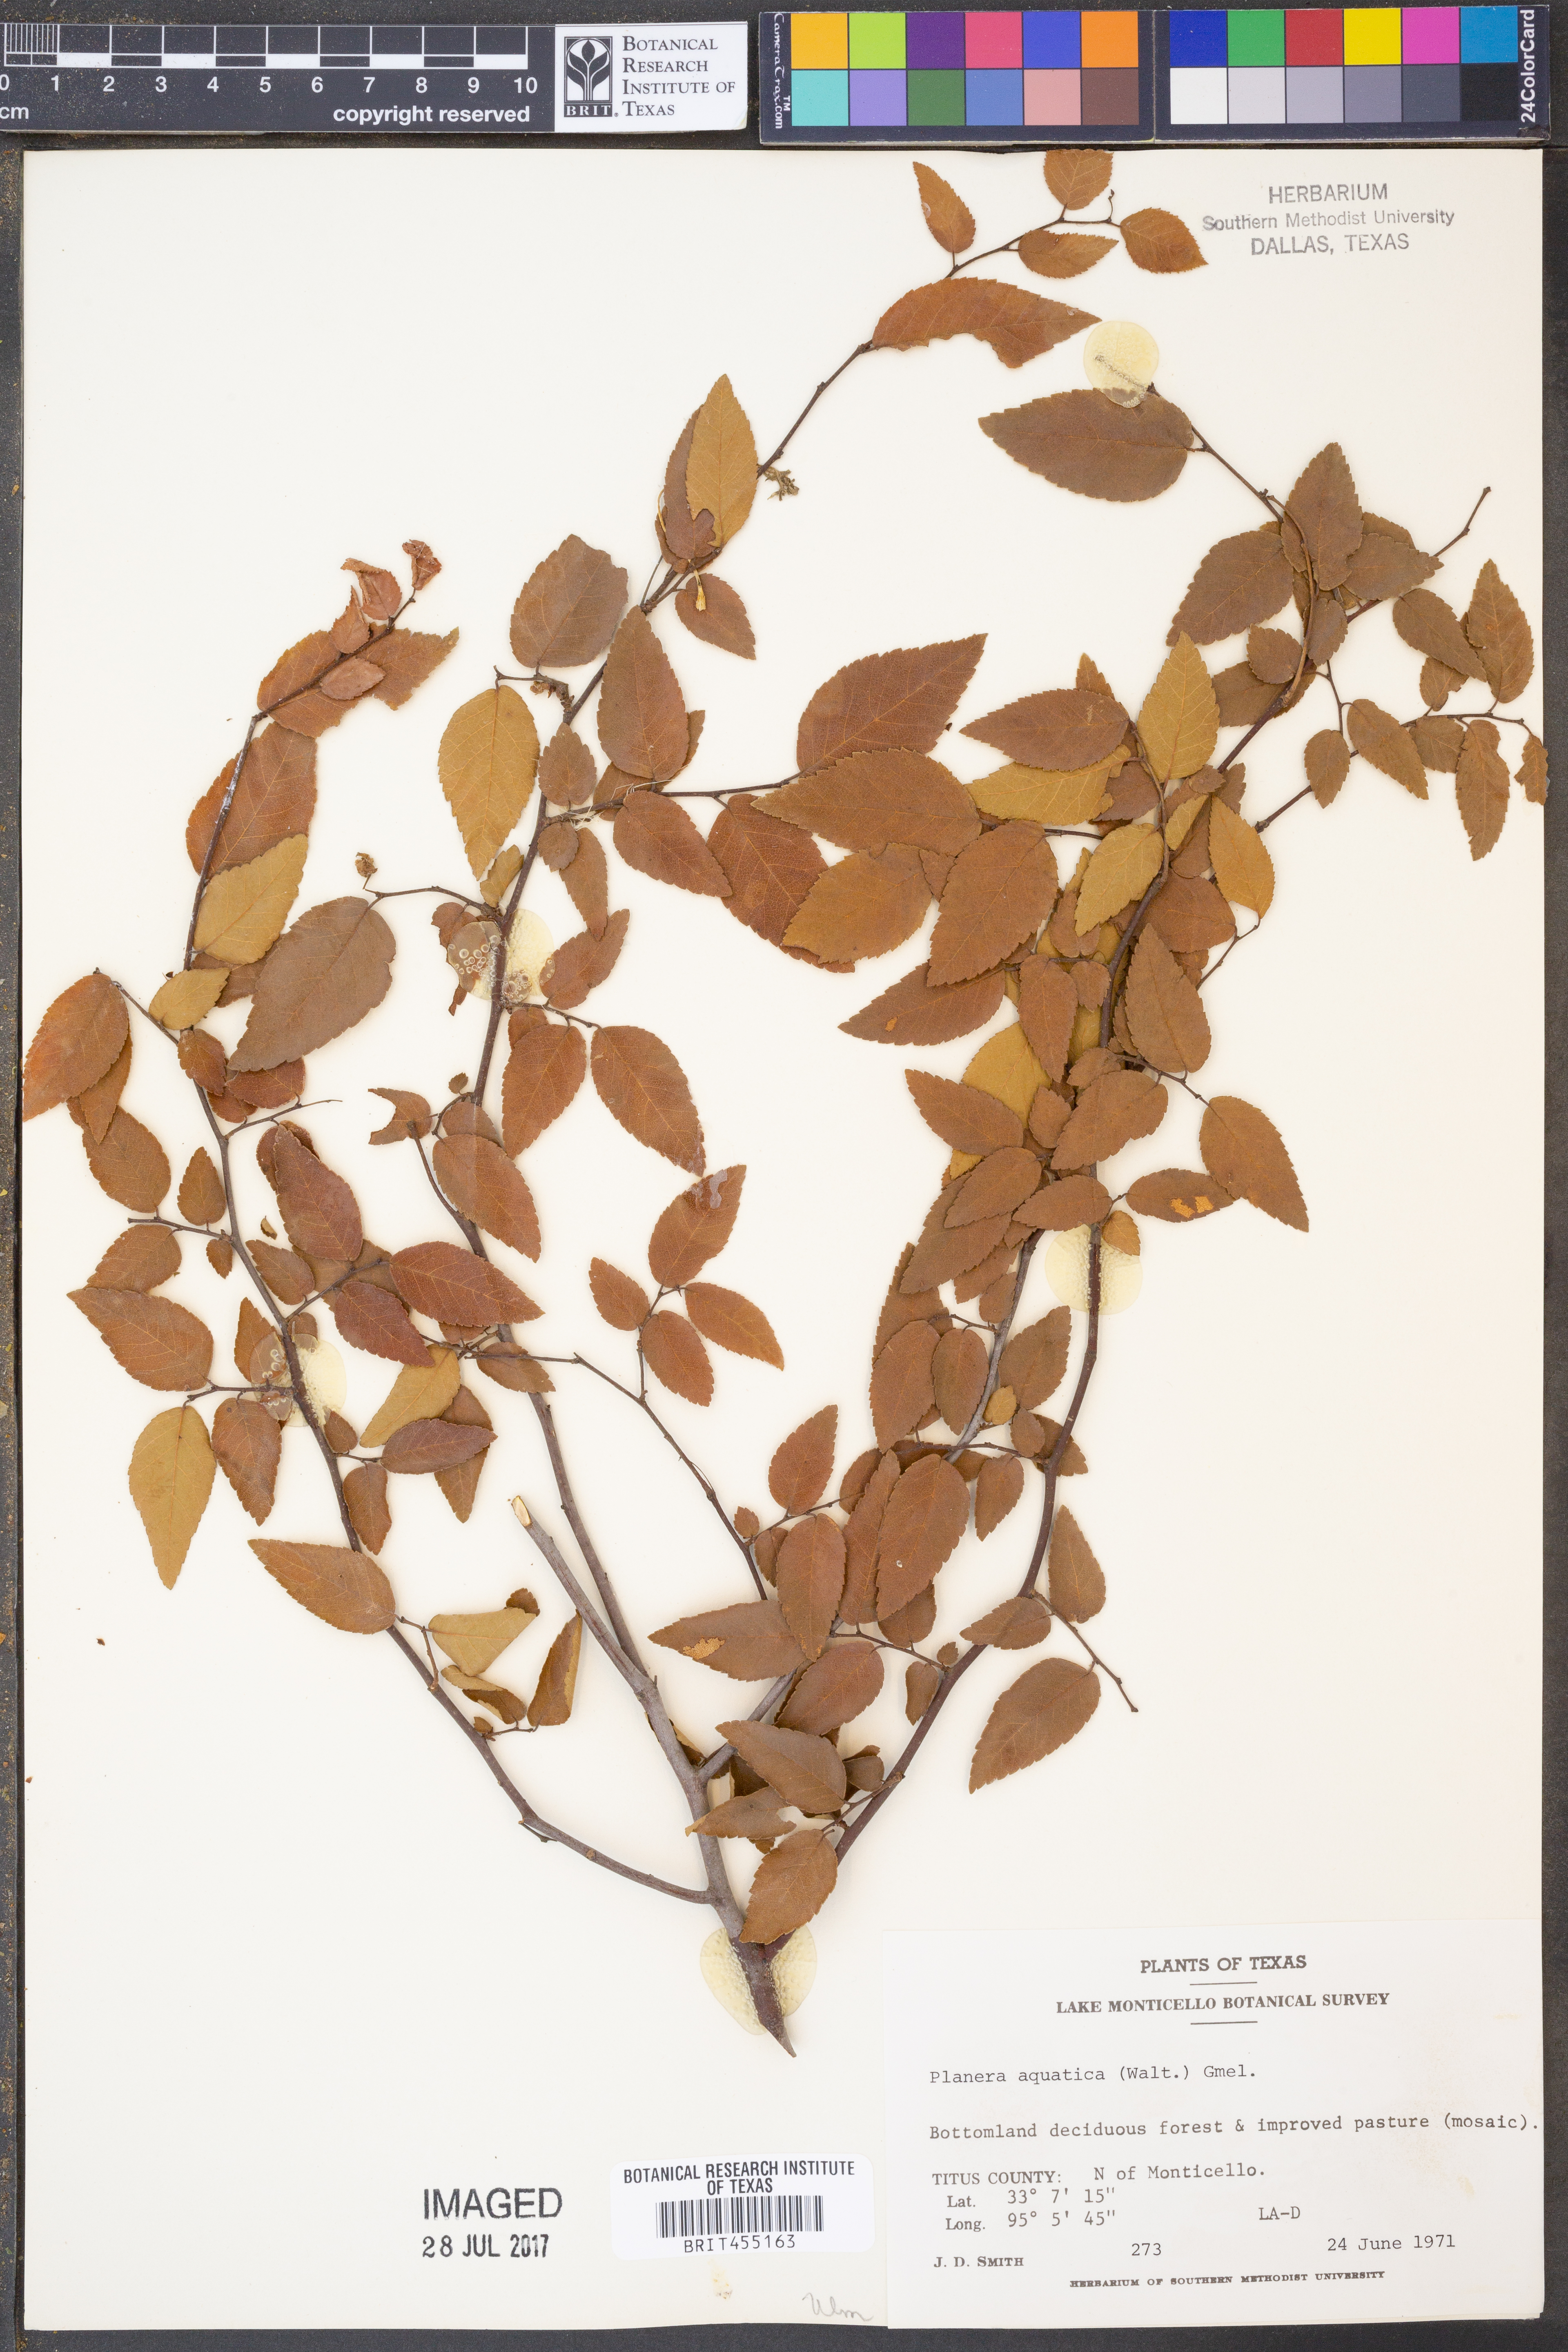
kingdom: Plantae
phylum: Tracheophyta
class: Magnoliopsida
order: Rosales
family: Ulmaceae
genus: Planera
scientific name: Planera aquatica
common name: Water-elm
